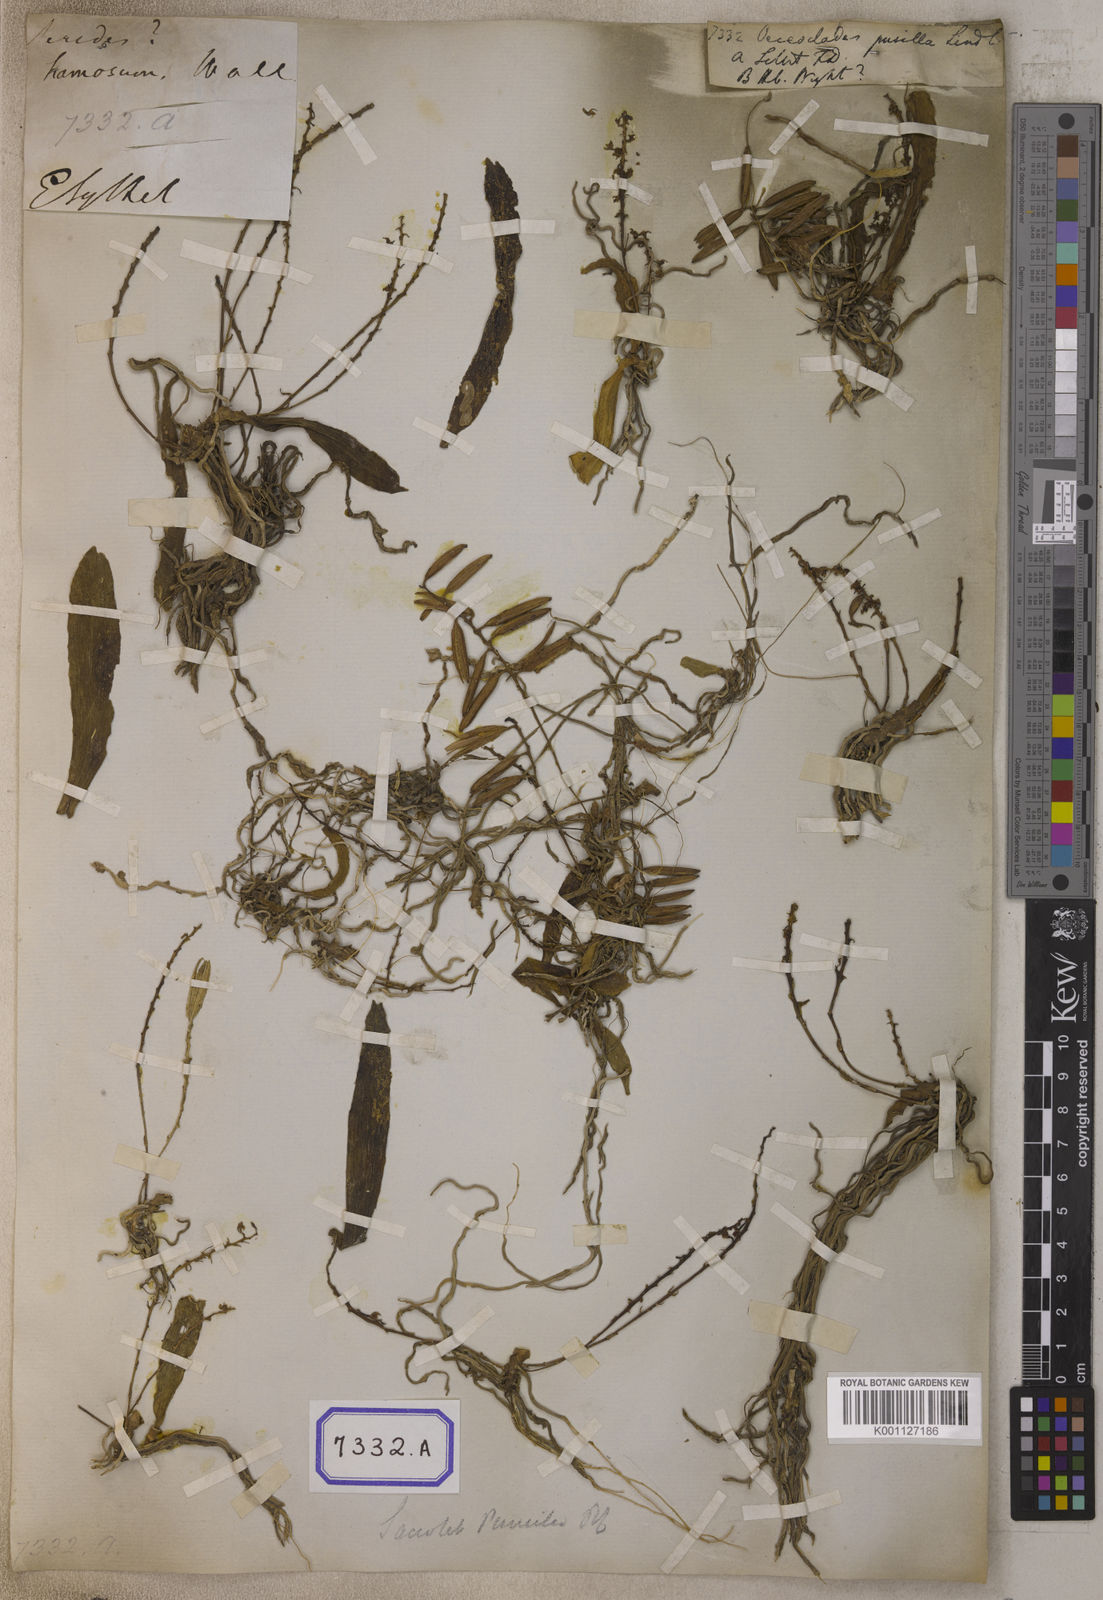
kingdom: Plantae
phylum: Tracheophyta
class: Liliopsida
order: Asparagales
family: Orchidaceae
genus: Saccolabiopsis
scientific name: Saccolabiopsis pusilla
